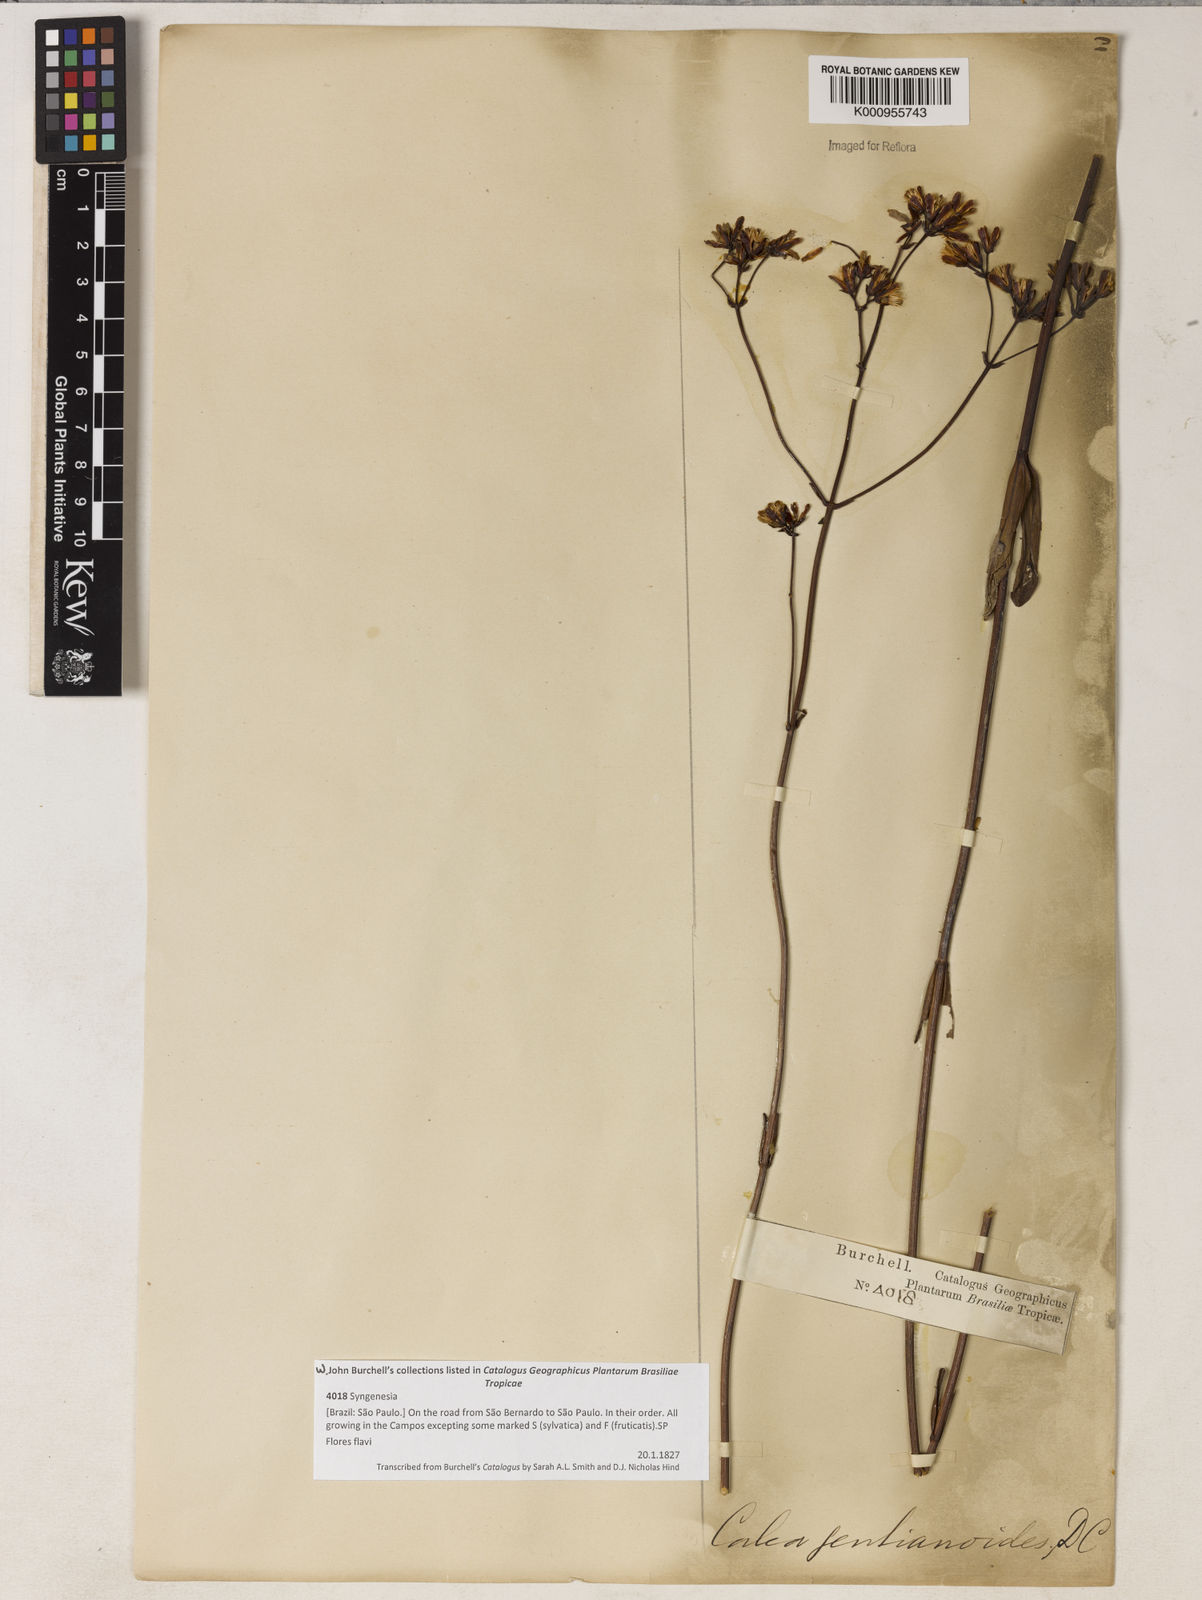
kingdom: Plantae
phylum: Tracheophyta
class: Magnoliopsida
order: Asterales
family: Asteraceae
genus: Calea
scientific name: Calea gentianoides
